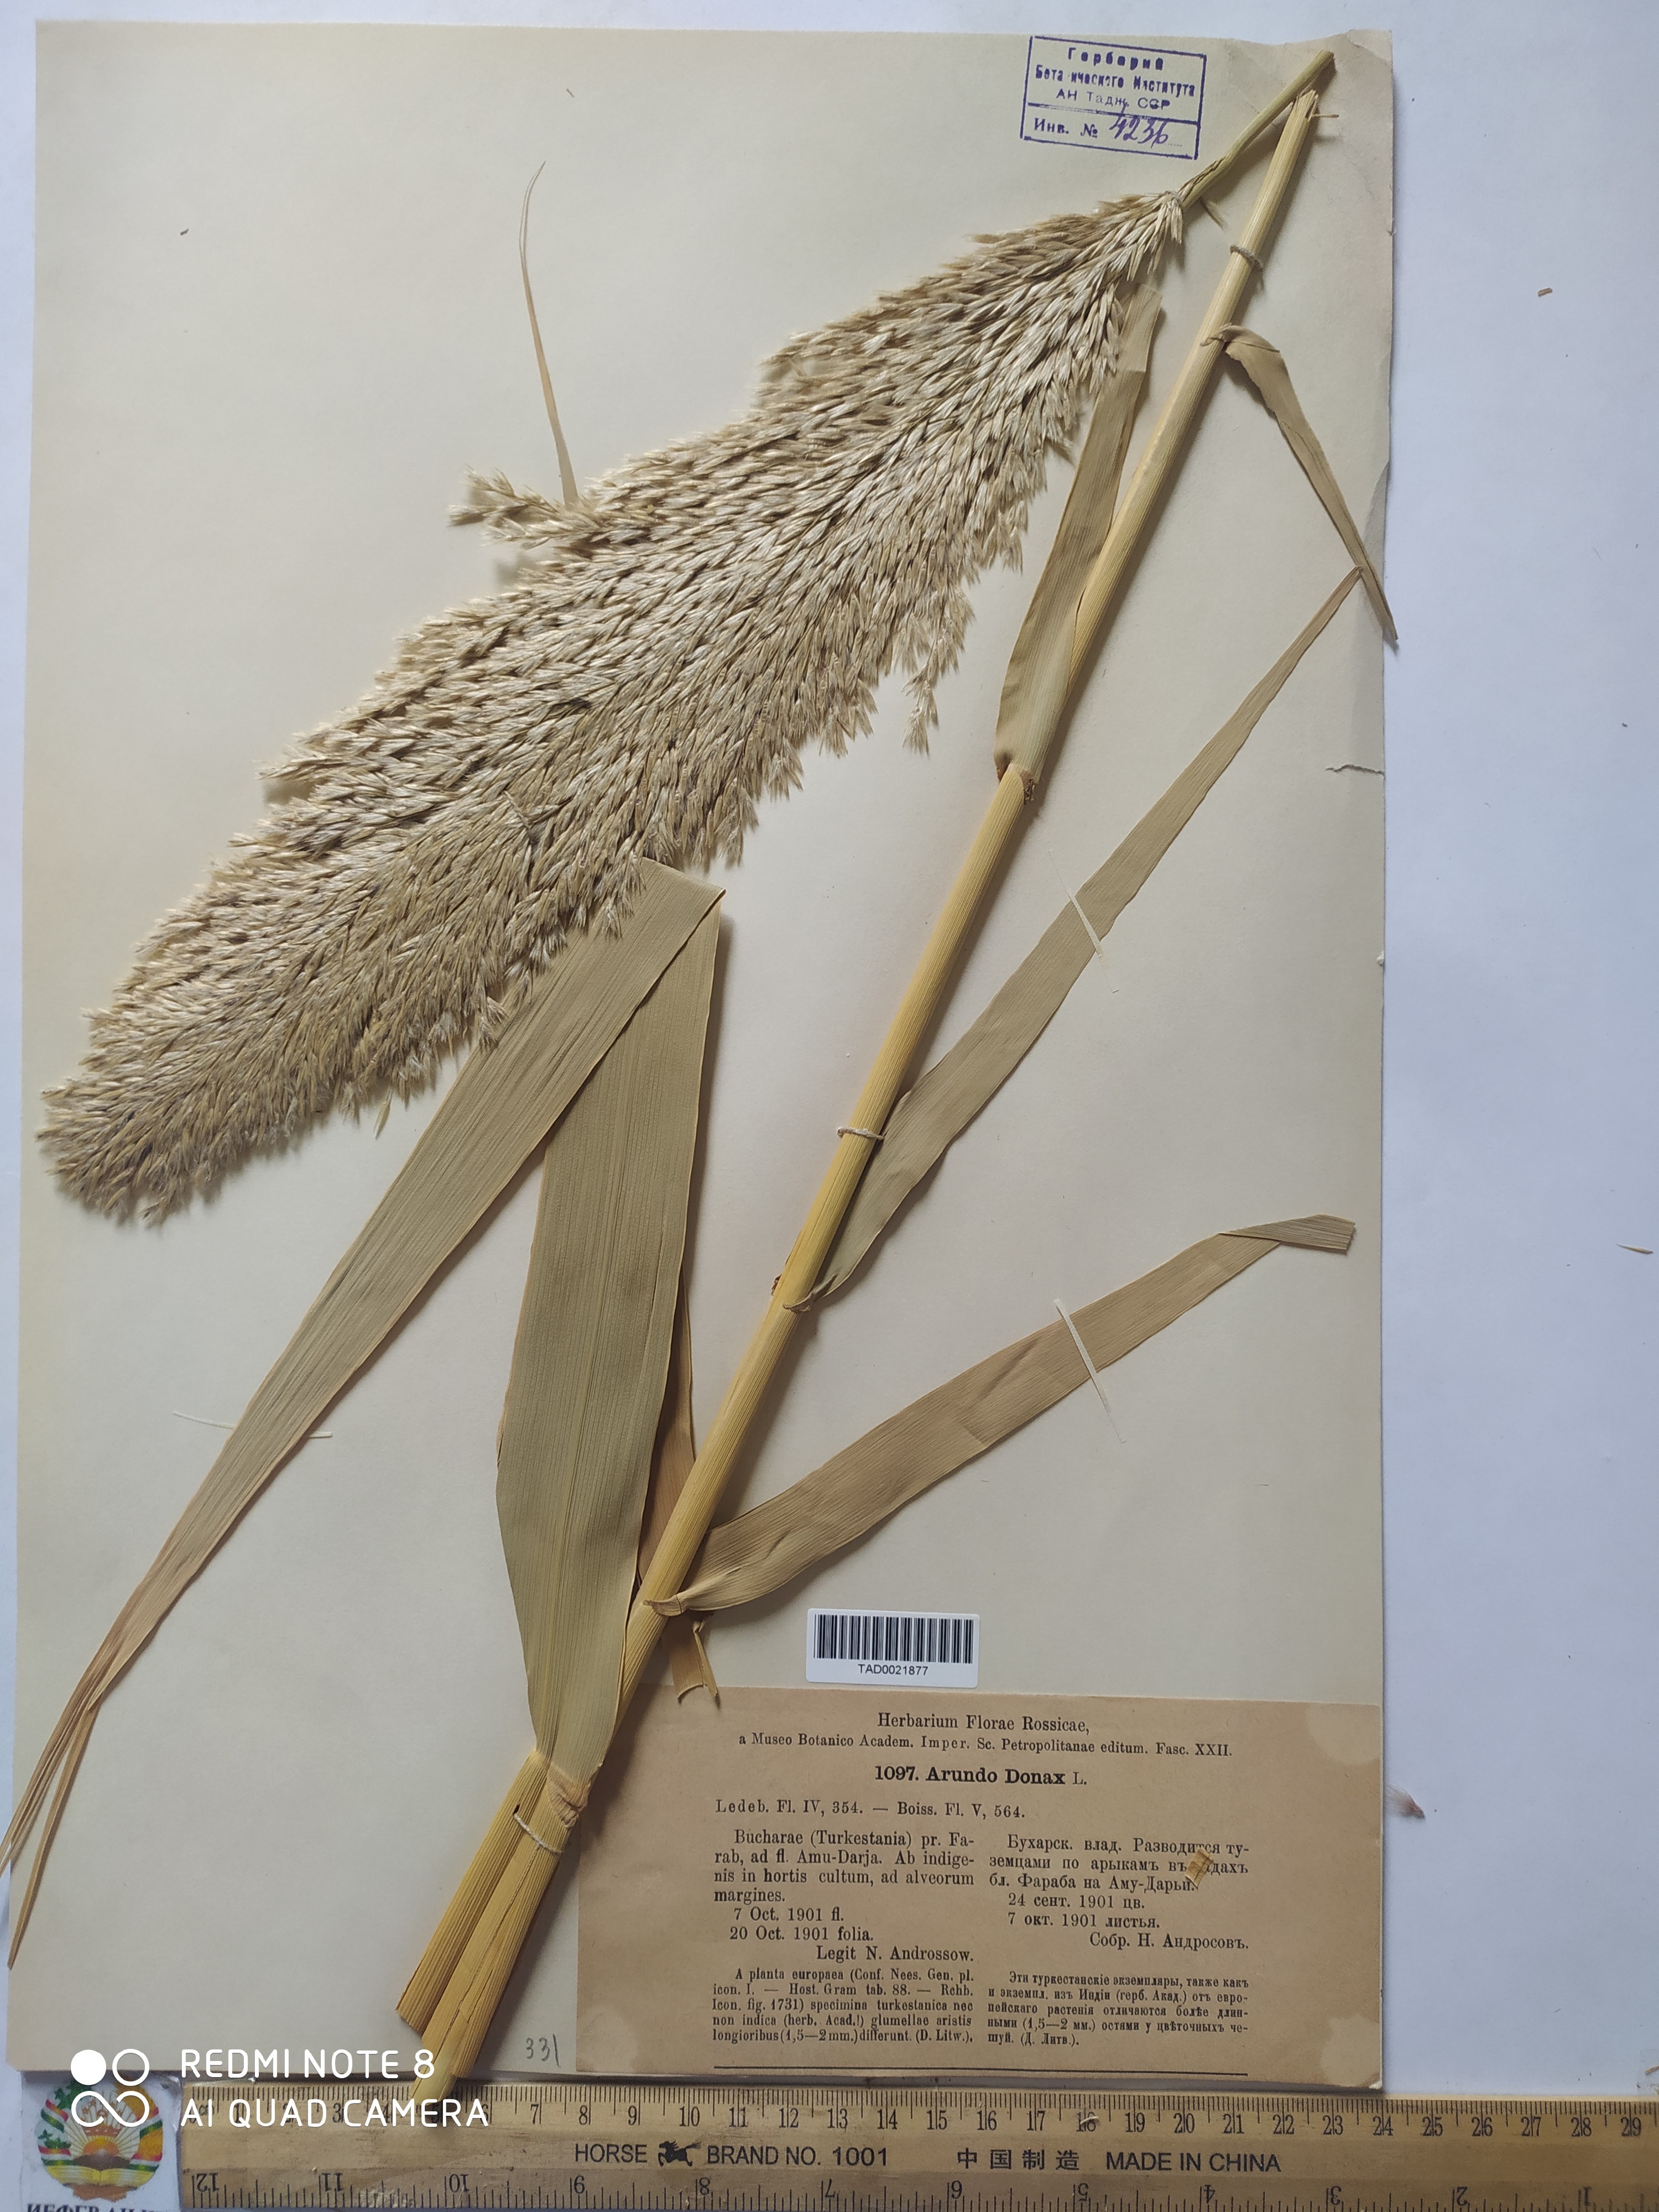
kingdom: Plantae
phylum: Tracheophyta
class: Liliopsida
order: Poales
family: Poaceae
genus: Arundo
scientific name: Arundo donax
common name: Giant reed
